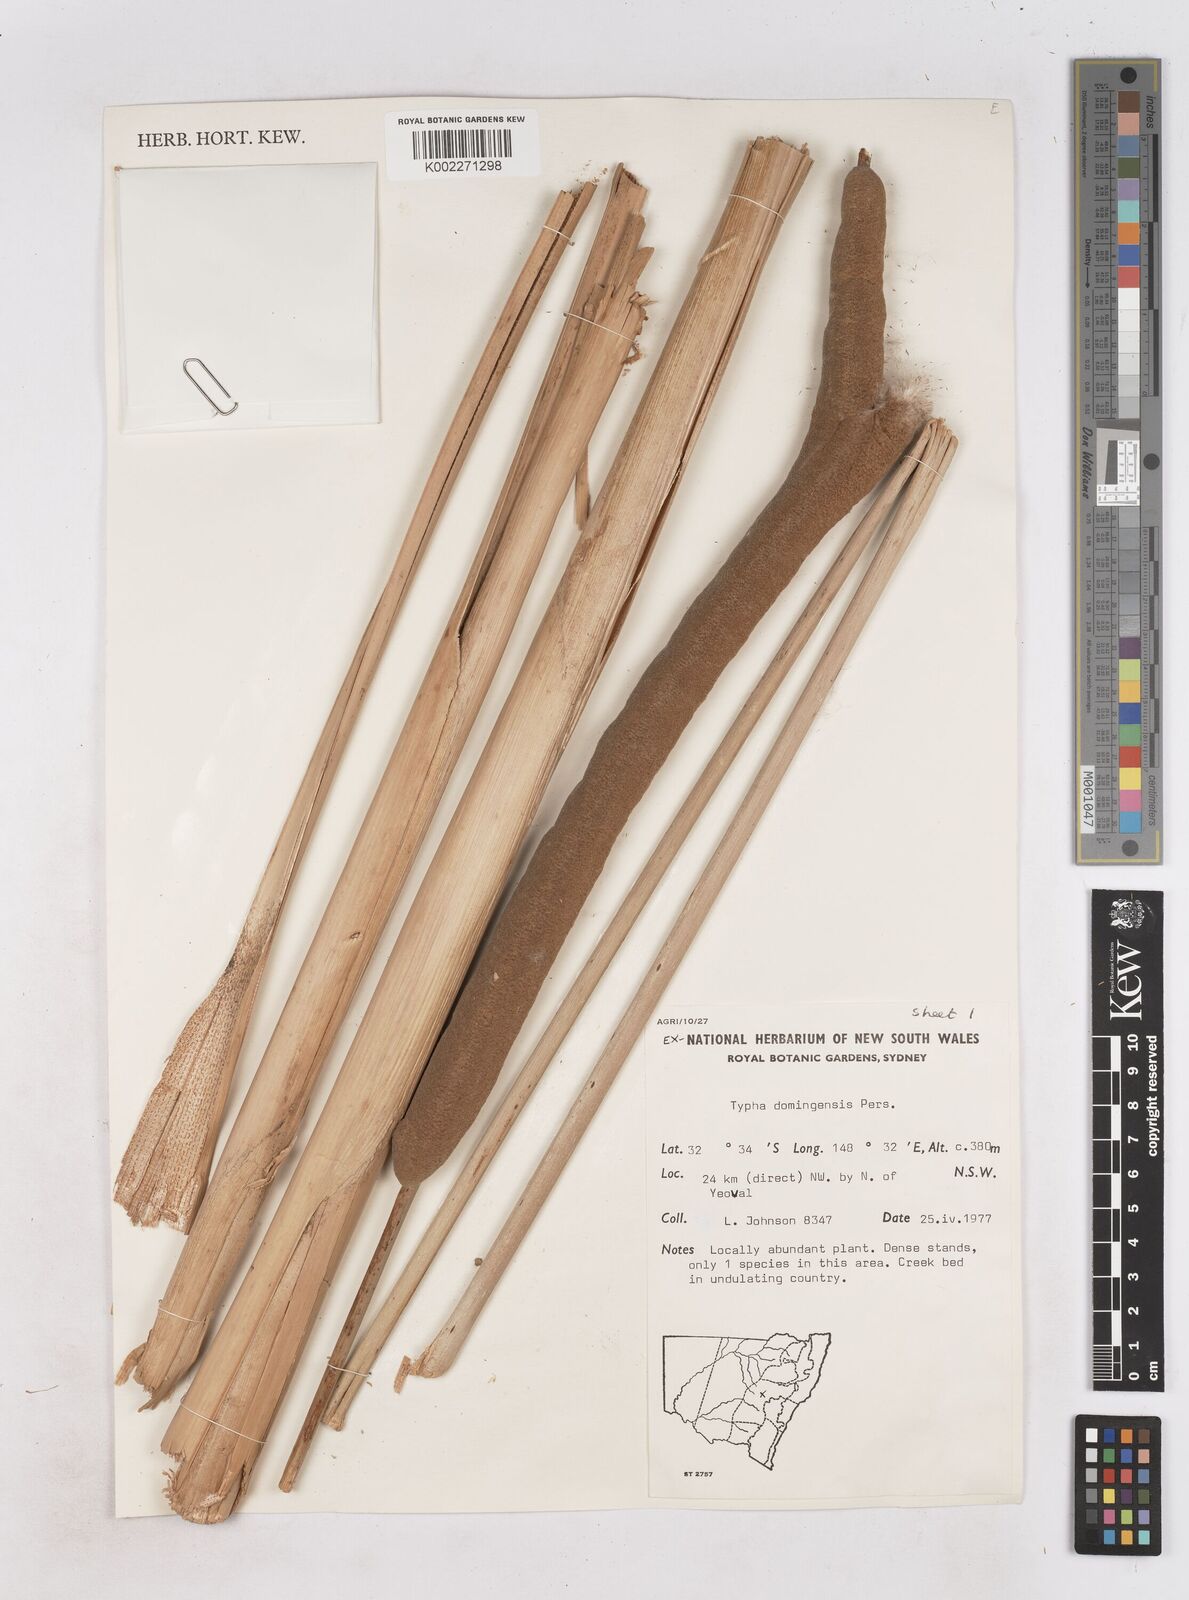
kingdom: Plantae
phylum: Tracheophyta
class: Liliopsida
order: Poales
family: Typhaceae
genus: Typha
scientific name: Typha domingensis
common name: Southern cattail
